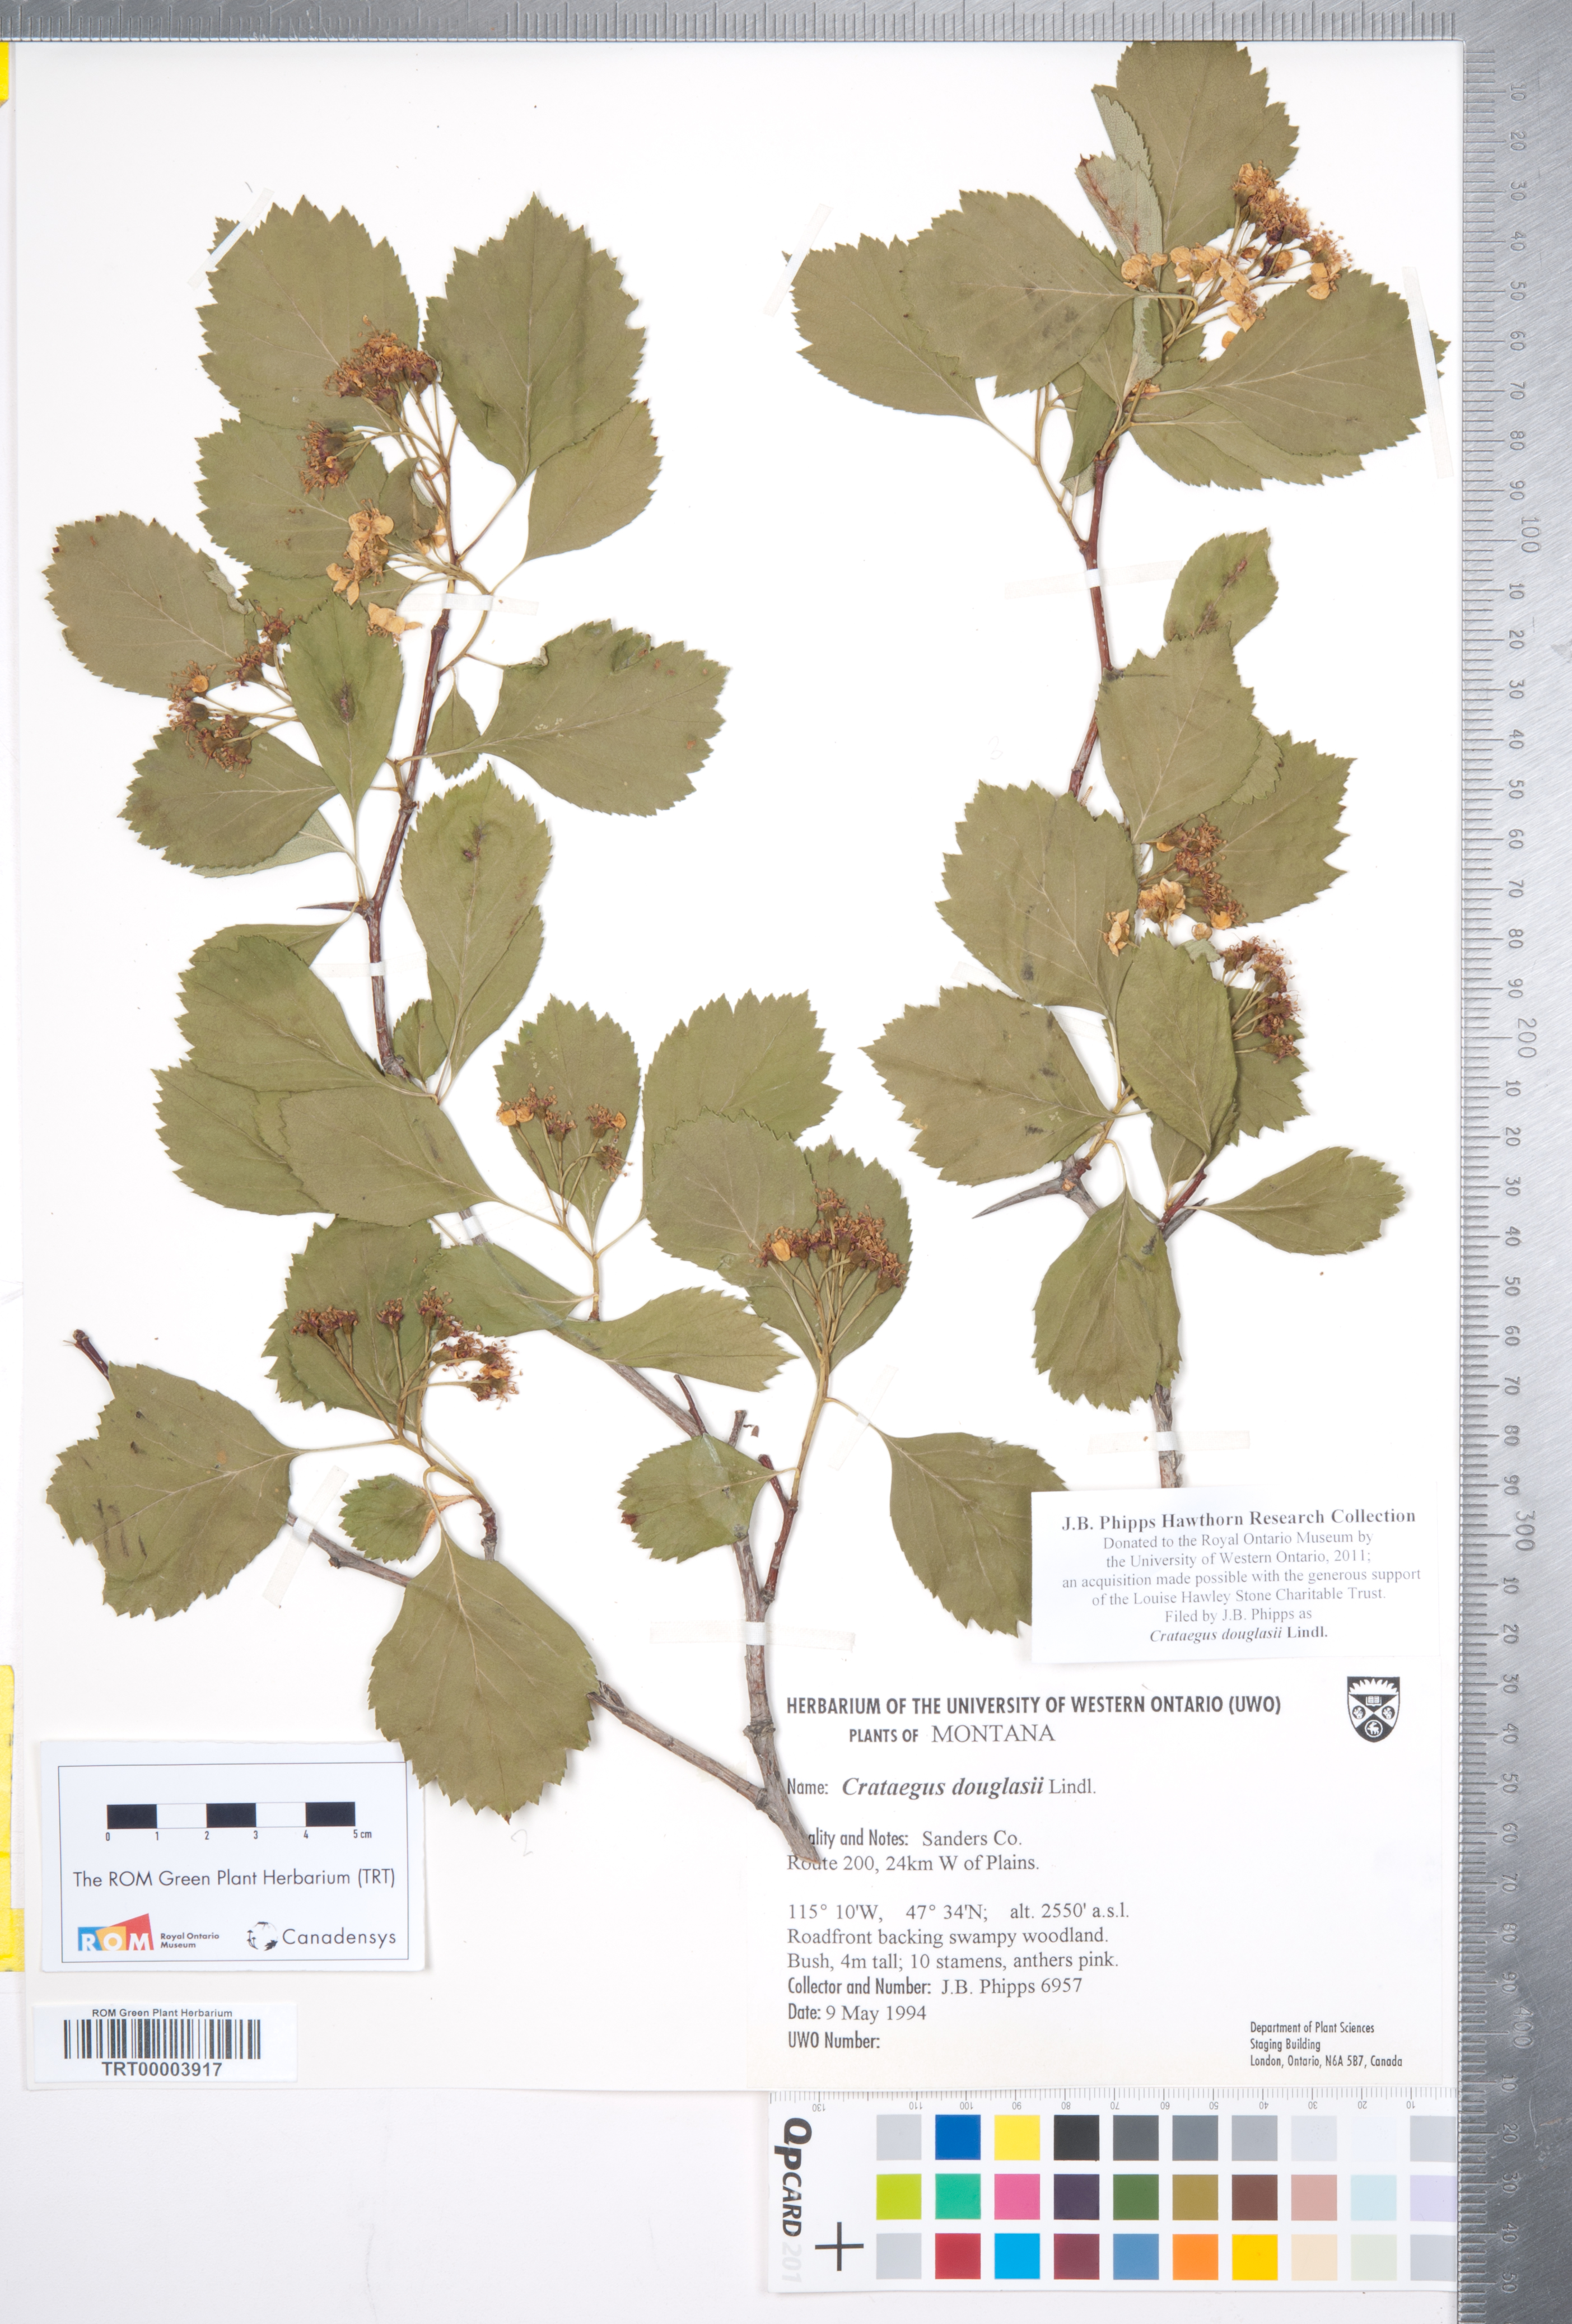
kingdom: Plantae
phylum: Tracheophyta
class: Magnoliopsida
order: Rosales
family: Rosaceae
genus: Crataegus
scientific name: Crataegus douglasii
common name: Black hawthorn
